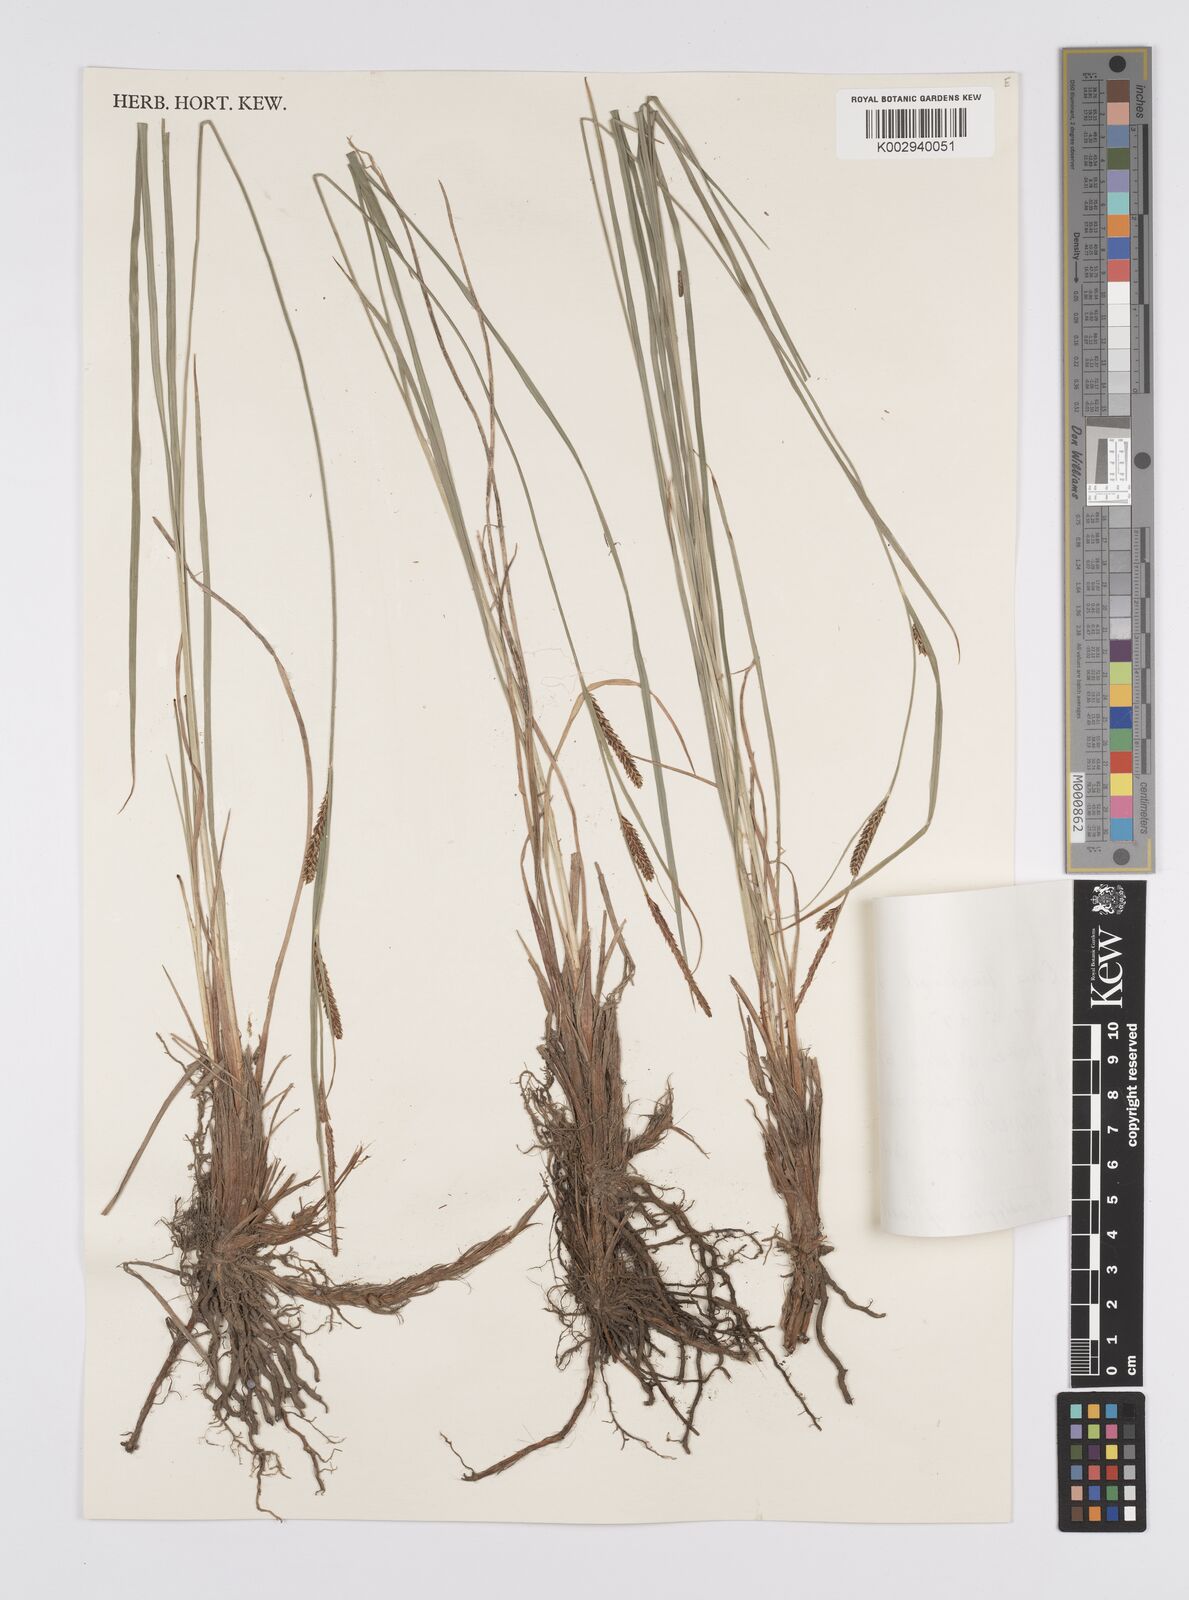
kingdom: Plantae
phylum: Tracheophyta
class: Liliopsida
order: Poales
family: Cyperaceae
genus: Carex
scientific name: Carex thunbergii
